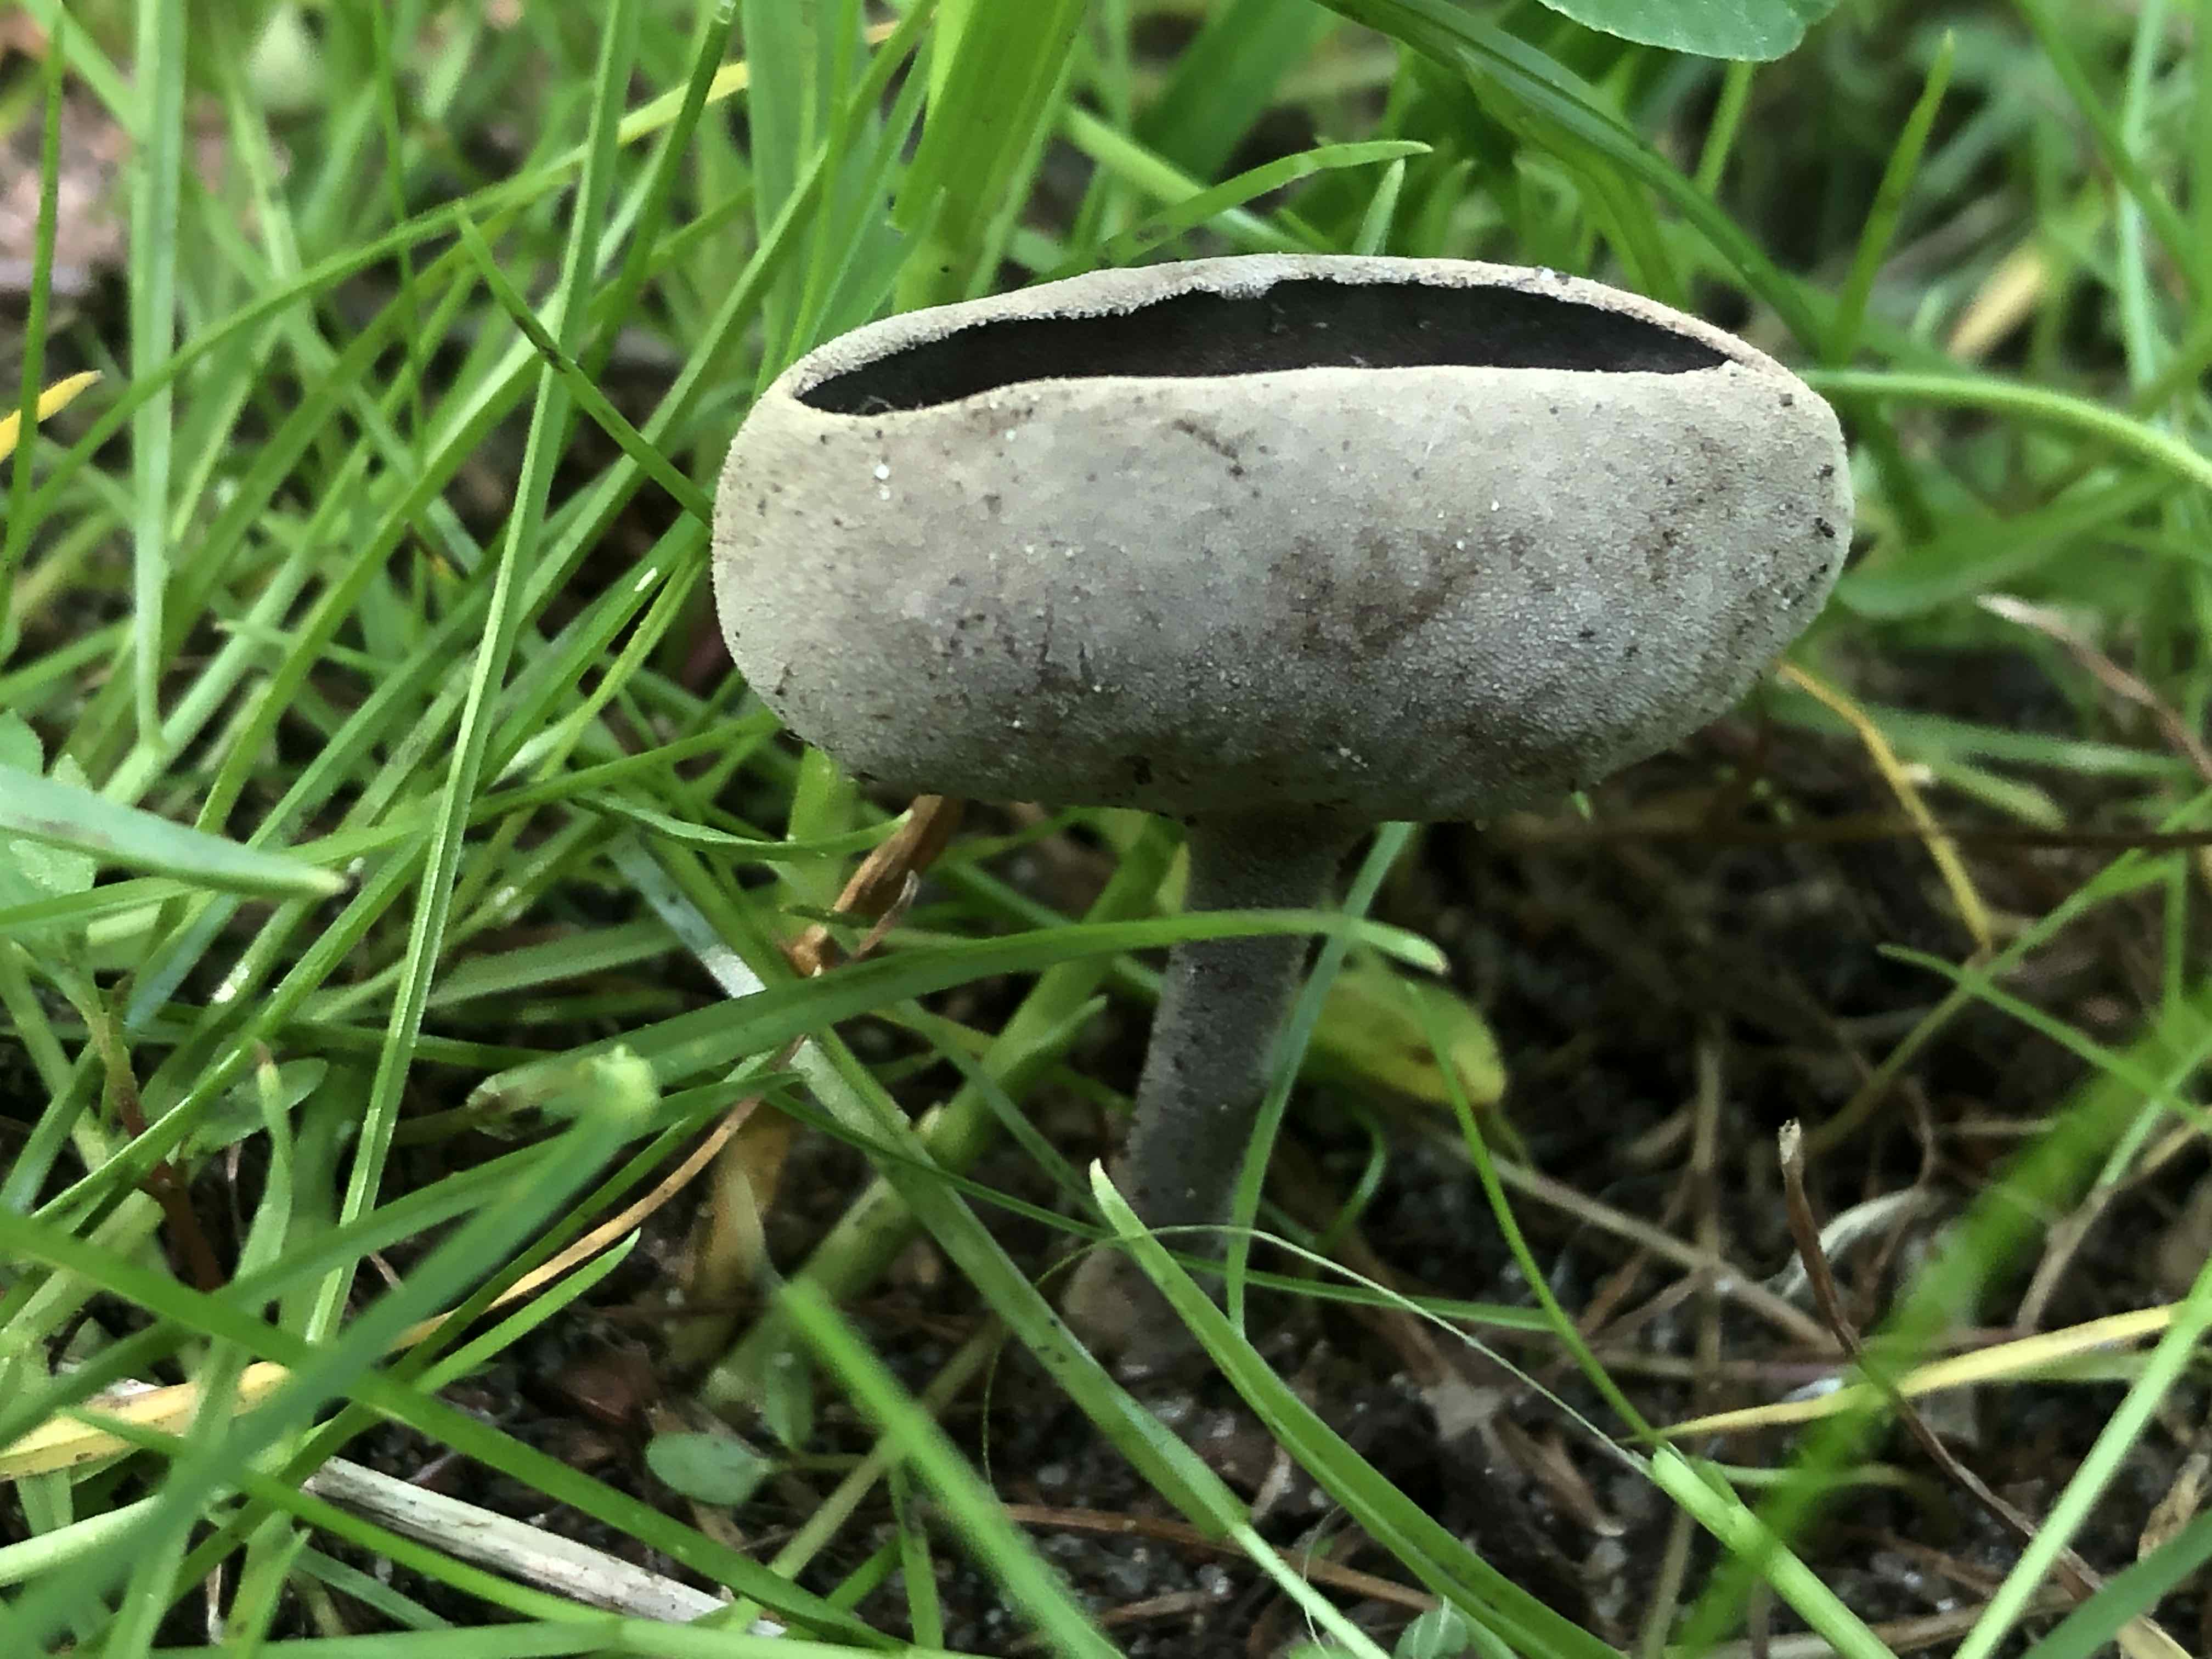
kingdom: Fungi
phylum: Ascomycota
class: Pezizomycetes
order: Pezizales
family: Helvellaceae
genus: Helvella
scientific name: Helvella
